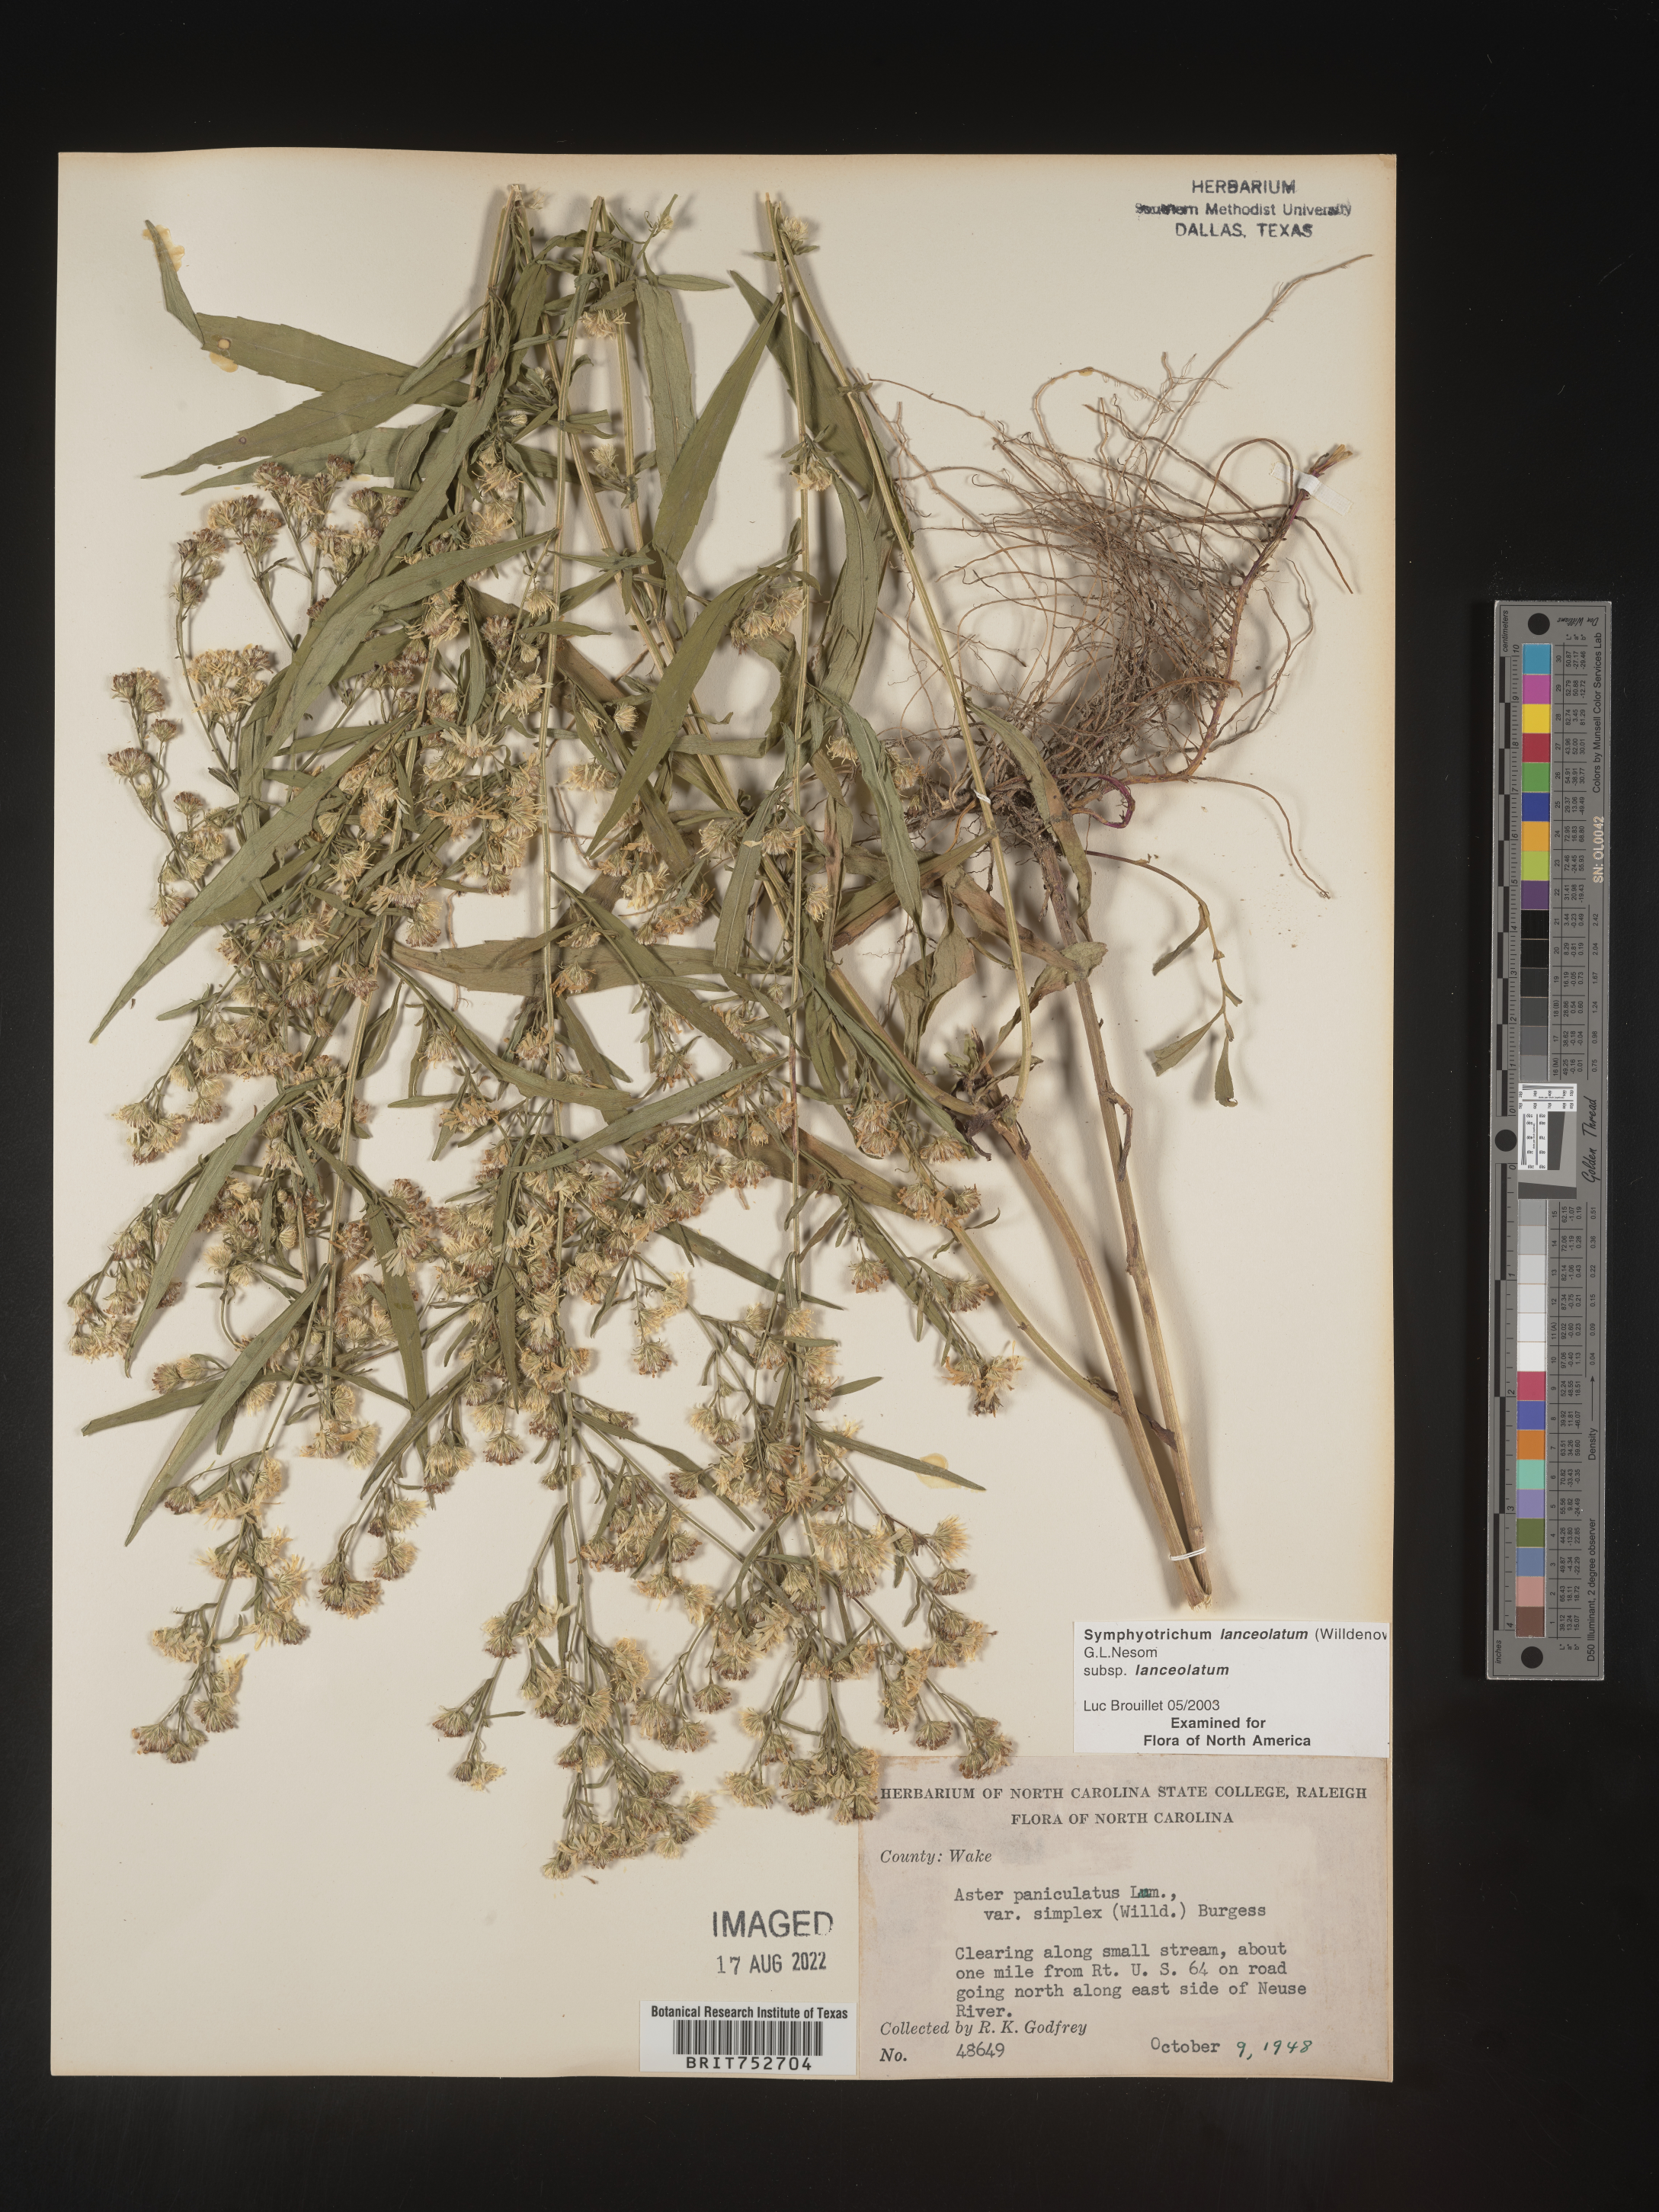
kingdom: Plantae
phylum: Tracheophyta
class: Magnoliopsida
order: Asterales
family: Asteraceae
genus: Symphyotrichum
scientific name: Symphyotrichum lanceolatum
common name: Panicled aster
